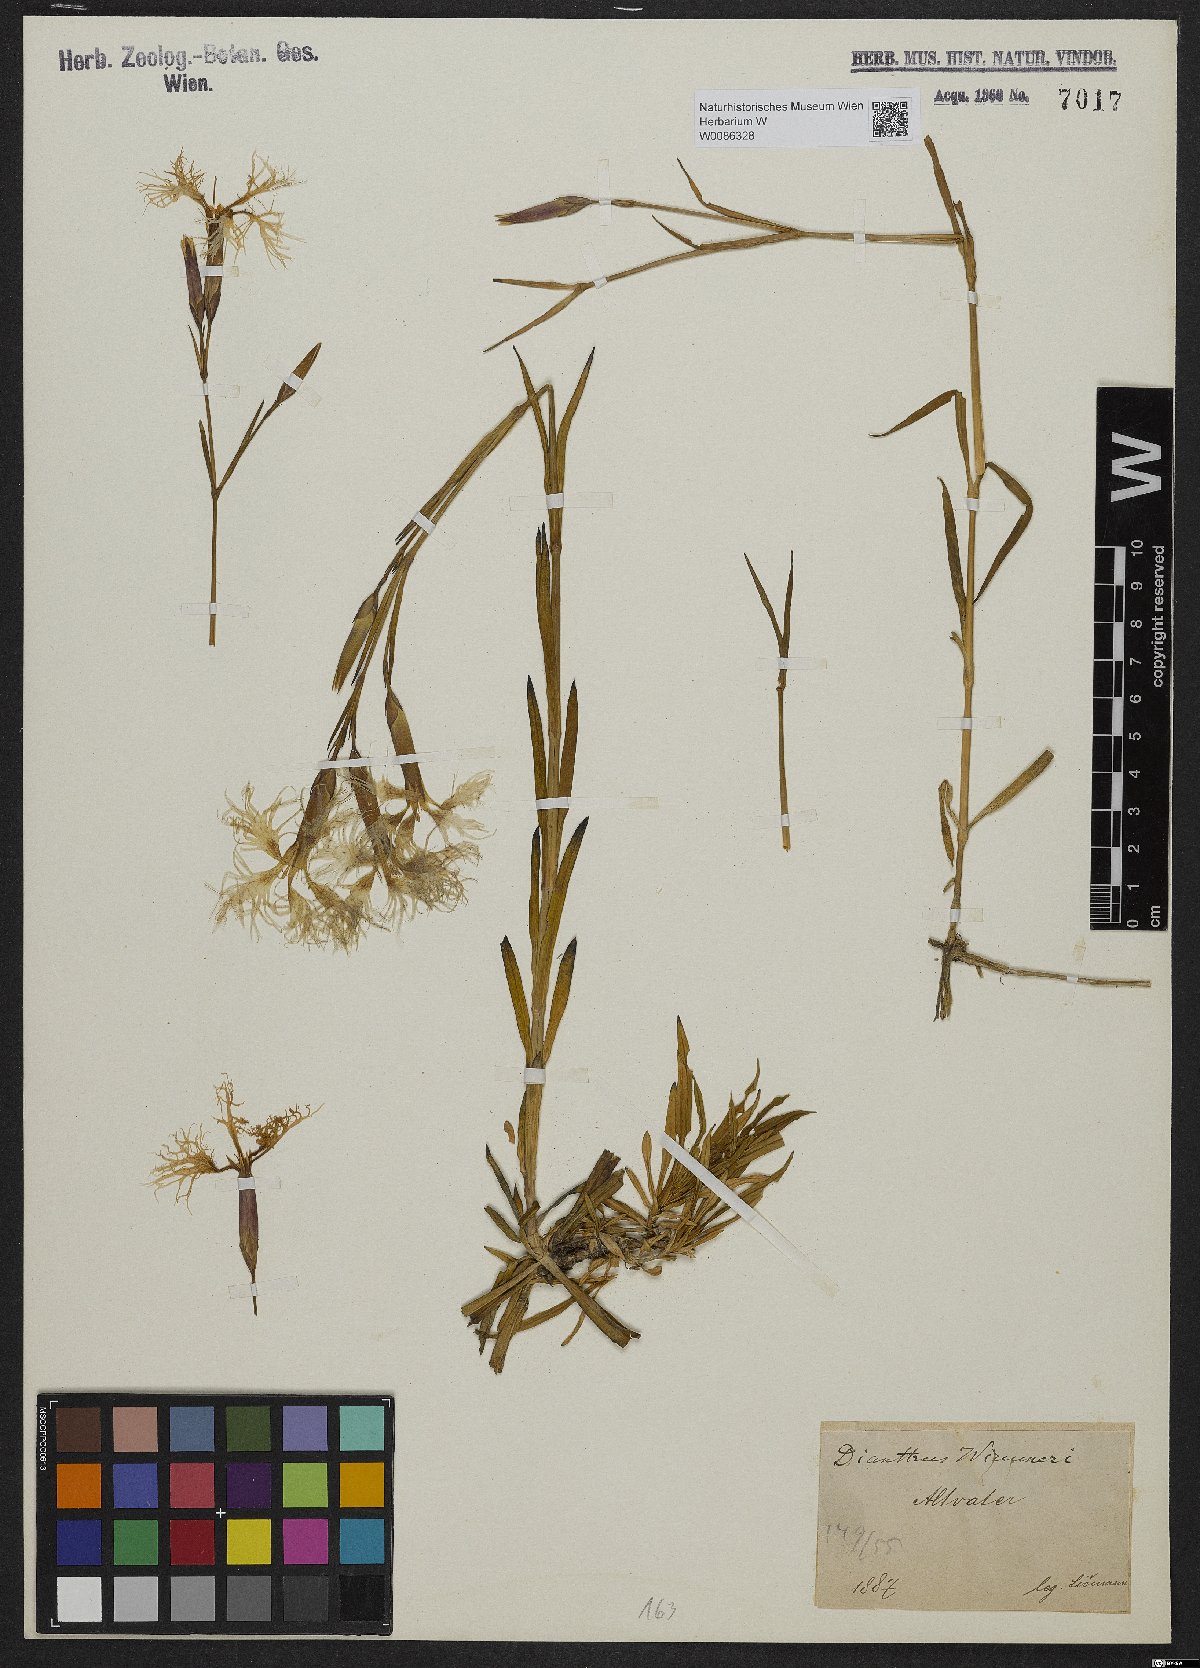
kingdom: Plantae
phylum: Tracheophyta
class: Magnoliopsida
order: Caryophyllales
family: Caryophyllaceae
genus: Dianthus
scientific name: Dianthus superbus
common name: Fringed pink
